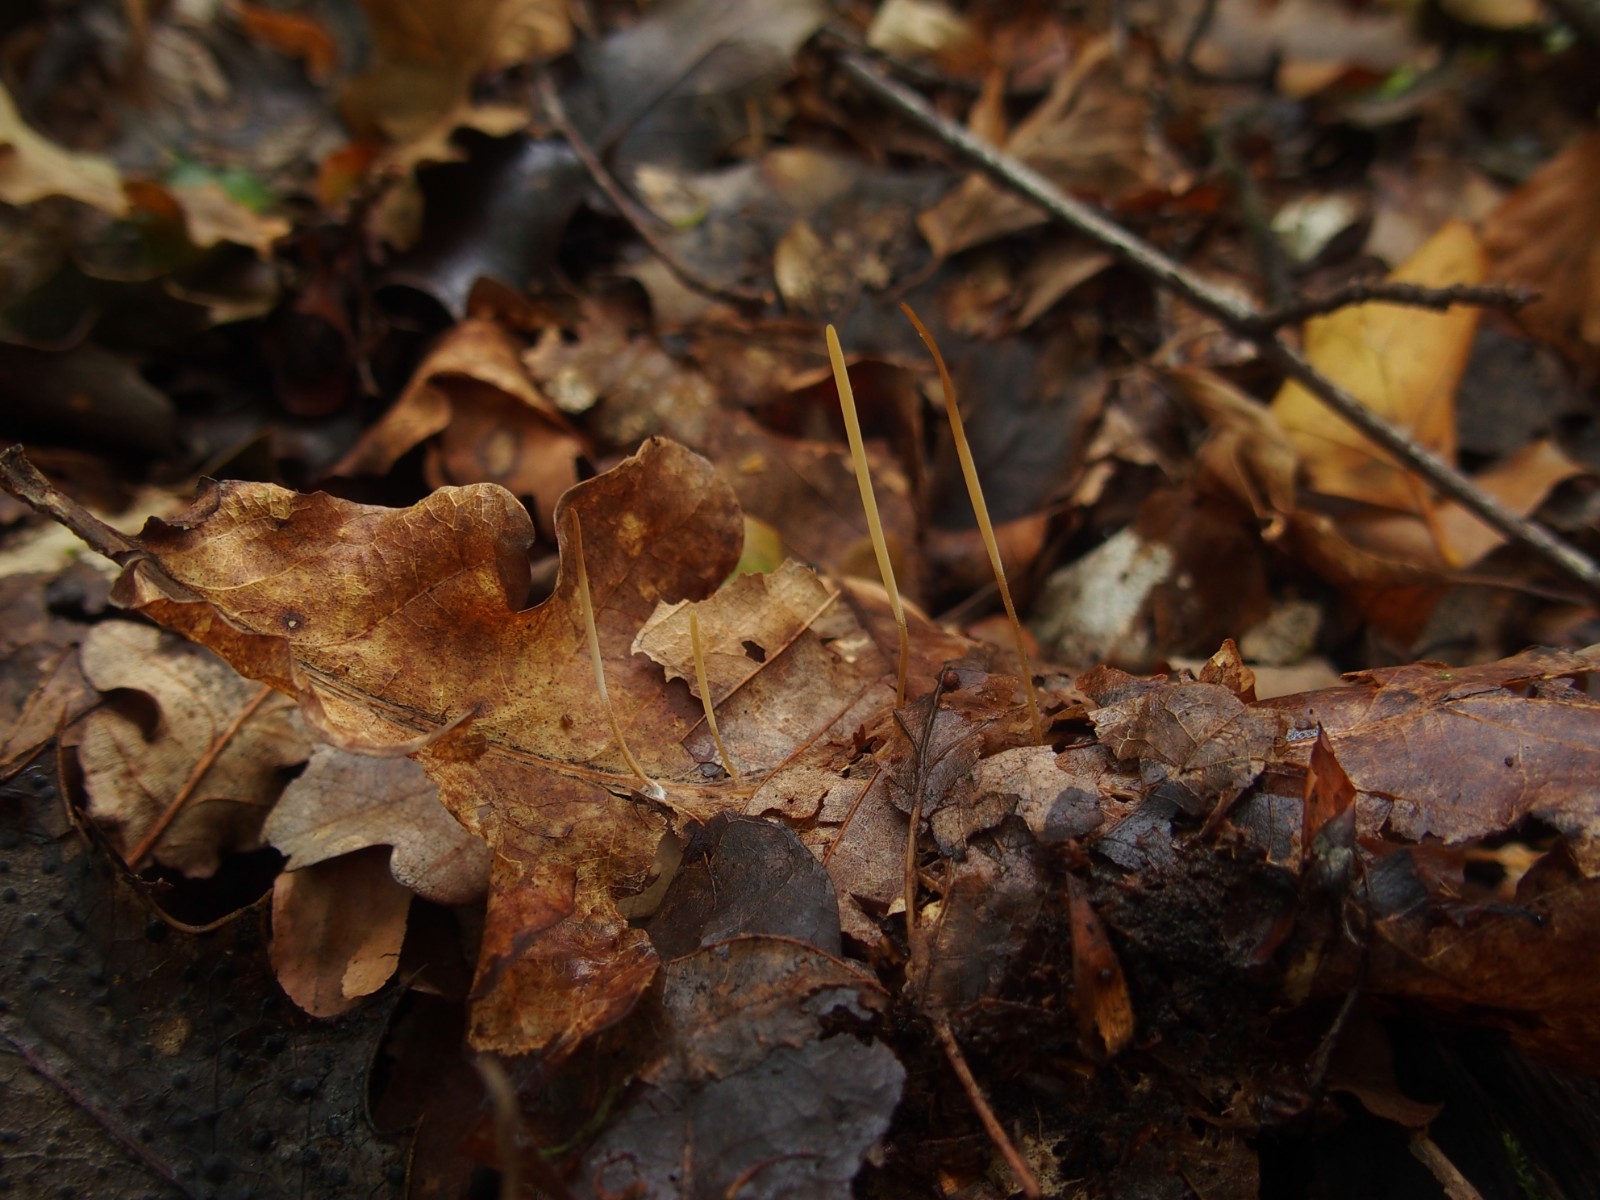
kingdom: Fungi
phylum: Basidiomycota
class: Agaricomycetes
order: Agaricales
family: Typhulaceae
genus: Typhula
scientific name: Typhula juncea
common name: trådagtig rørkølle
